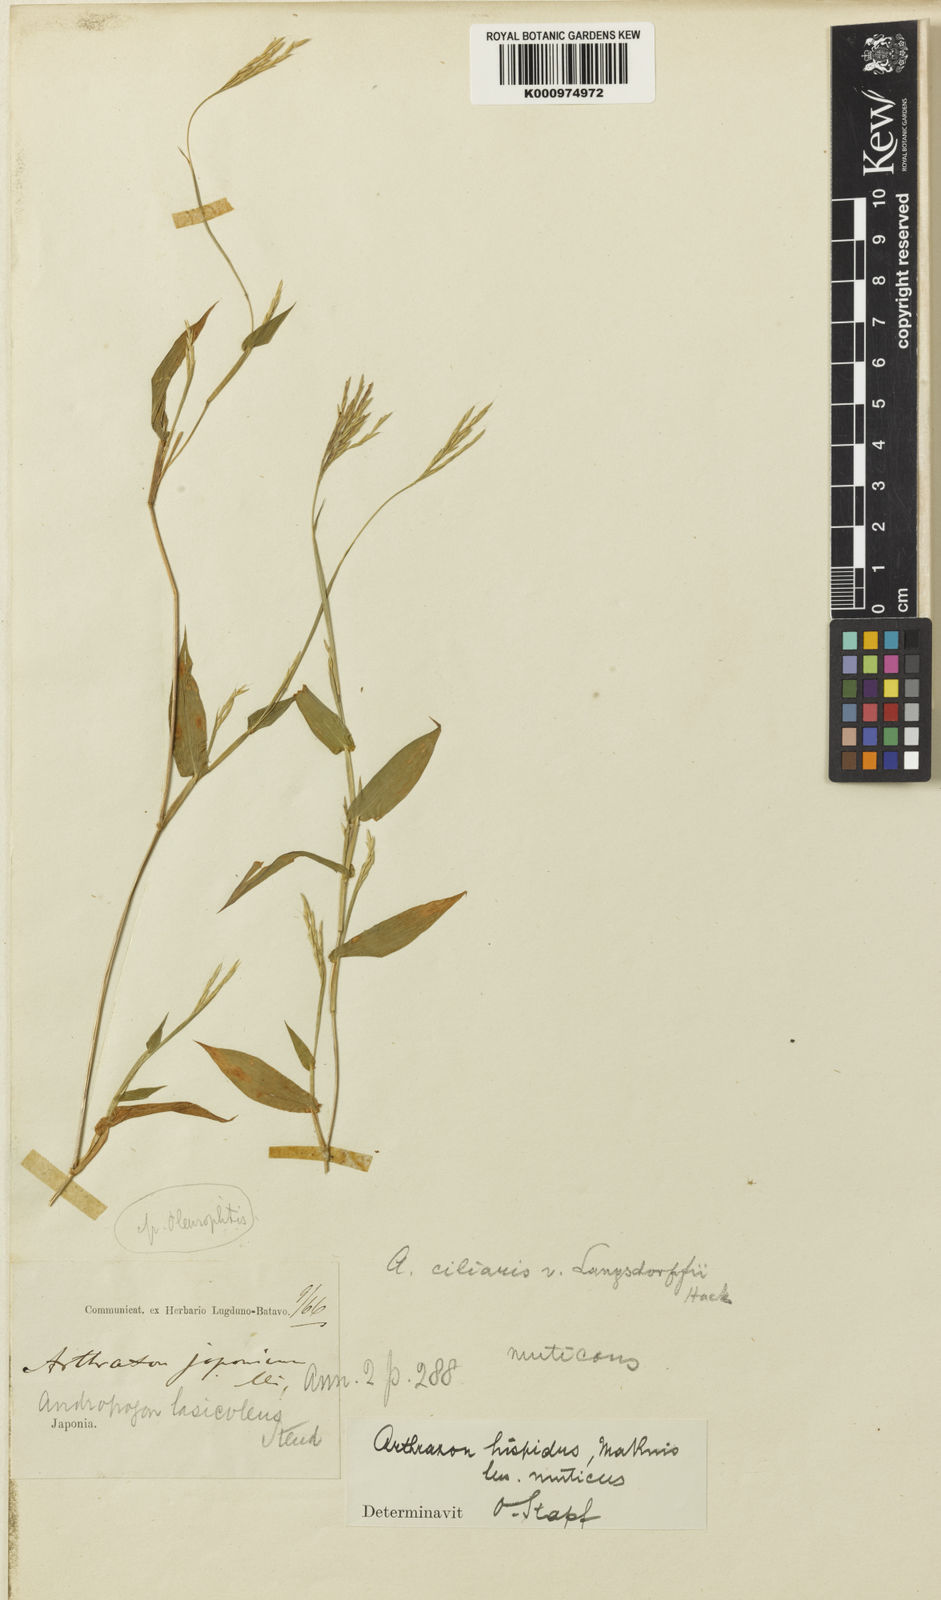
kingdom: Plantae
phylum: Tracheophyta
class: Liliopsida
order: Poales
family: Poaceae
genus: Arthraxon
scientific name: Arthraxon hispidus
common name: Small carpgrass
